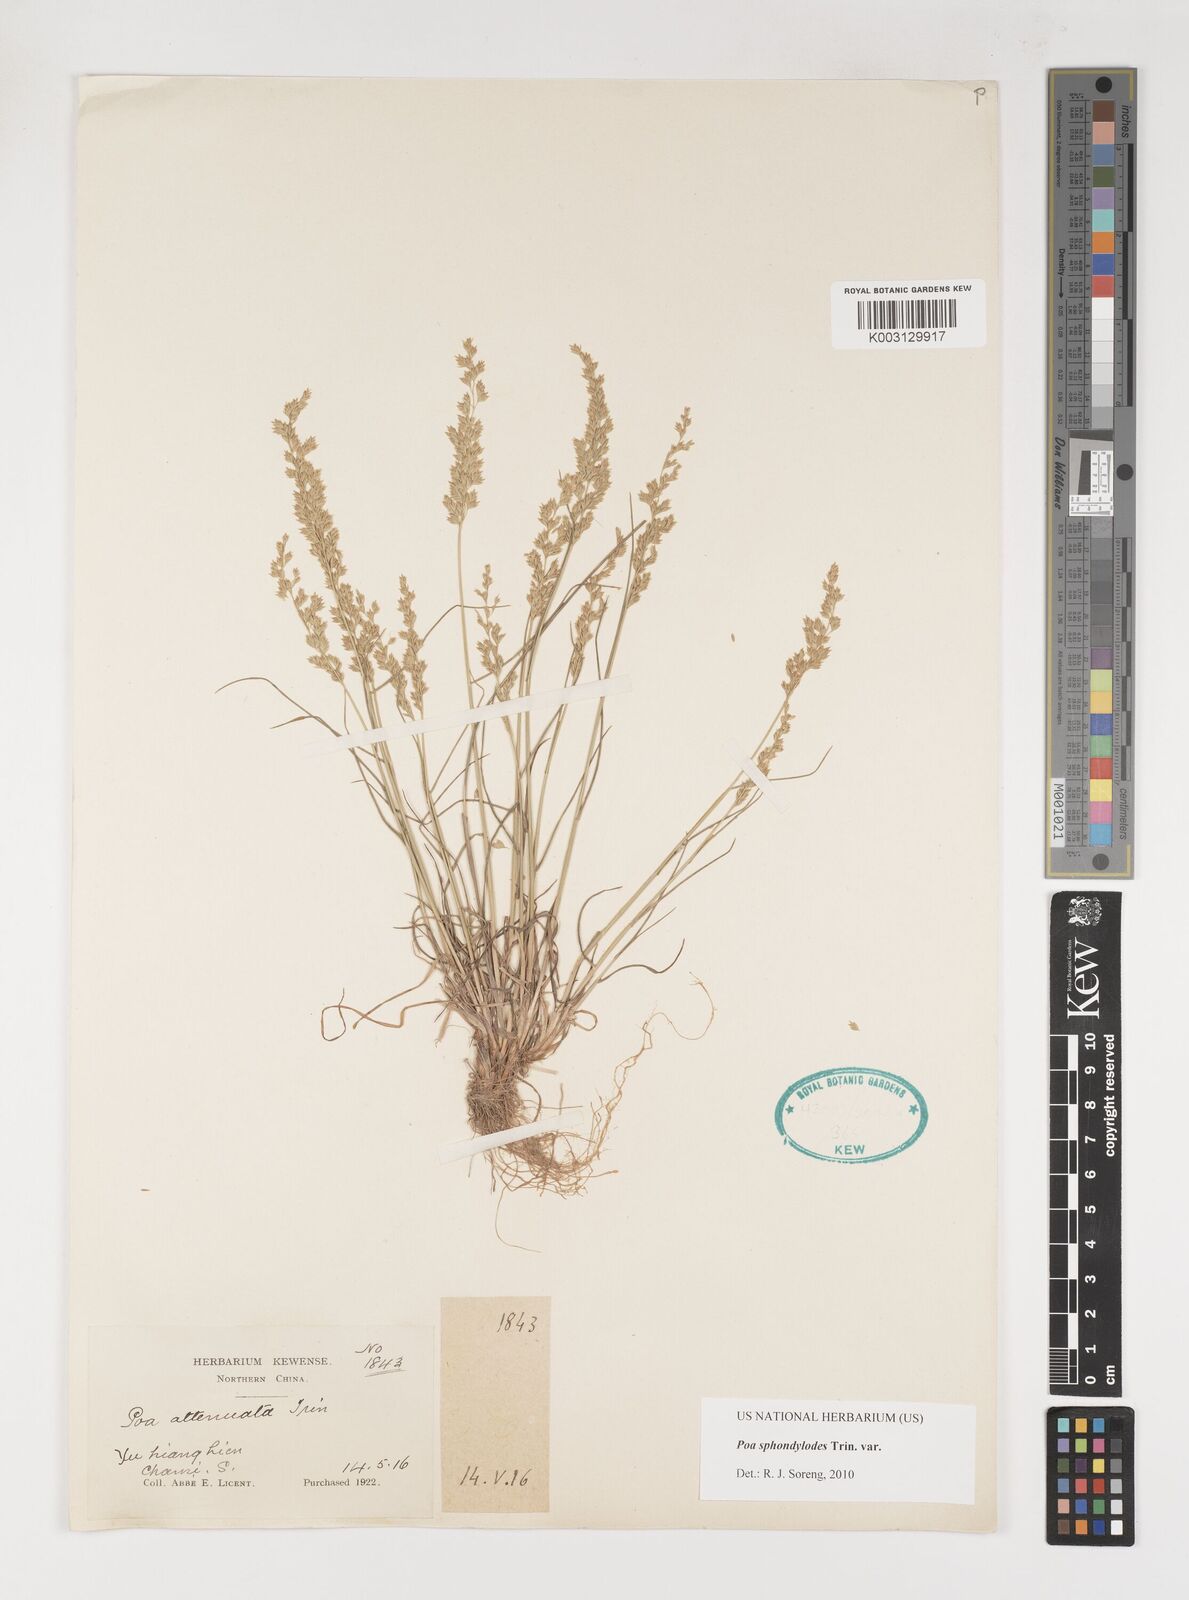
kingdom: Plantae
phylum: Tracheophyta
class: Liliopsida
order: Poales
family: Poaceae
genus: Poa
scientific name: Poa sphondylodes
